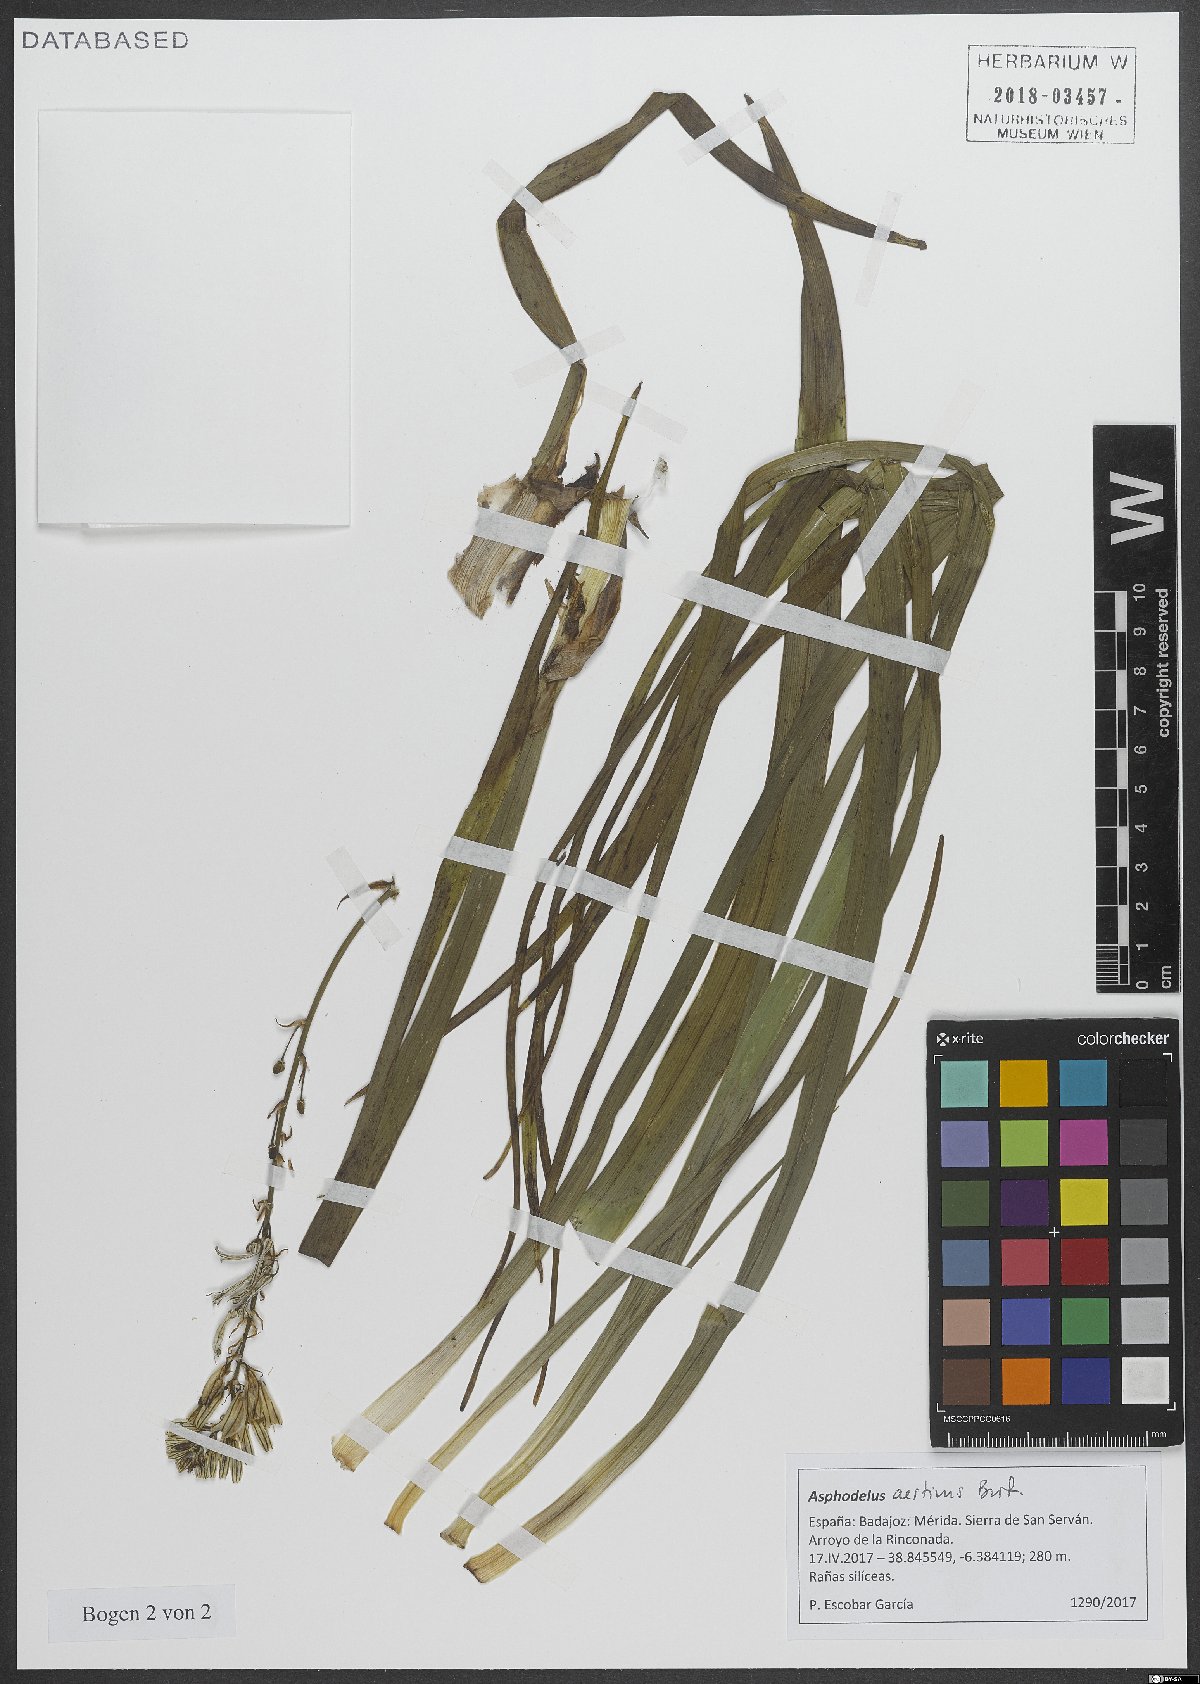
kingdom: Plantae
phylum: Tracheophyta
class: Liliopsida
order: Asparagales
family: Asphodelaceae
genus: Asphodelus
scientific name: Asphodelus aestivus
